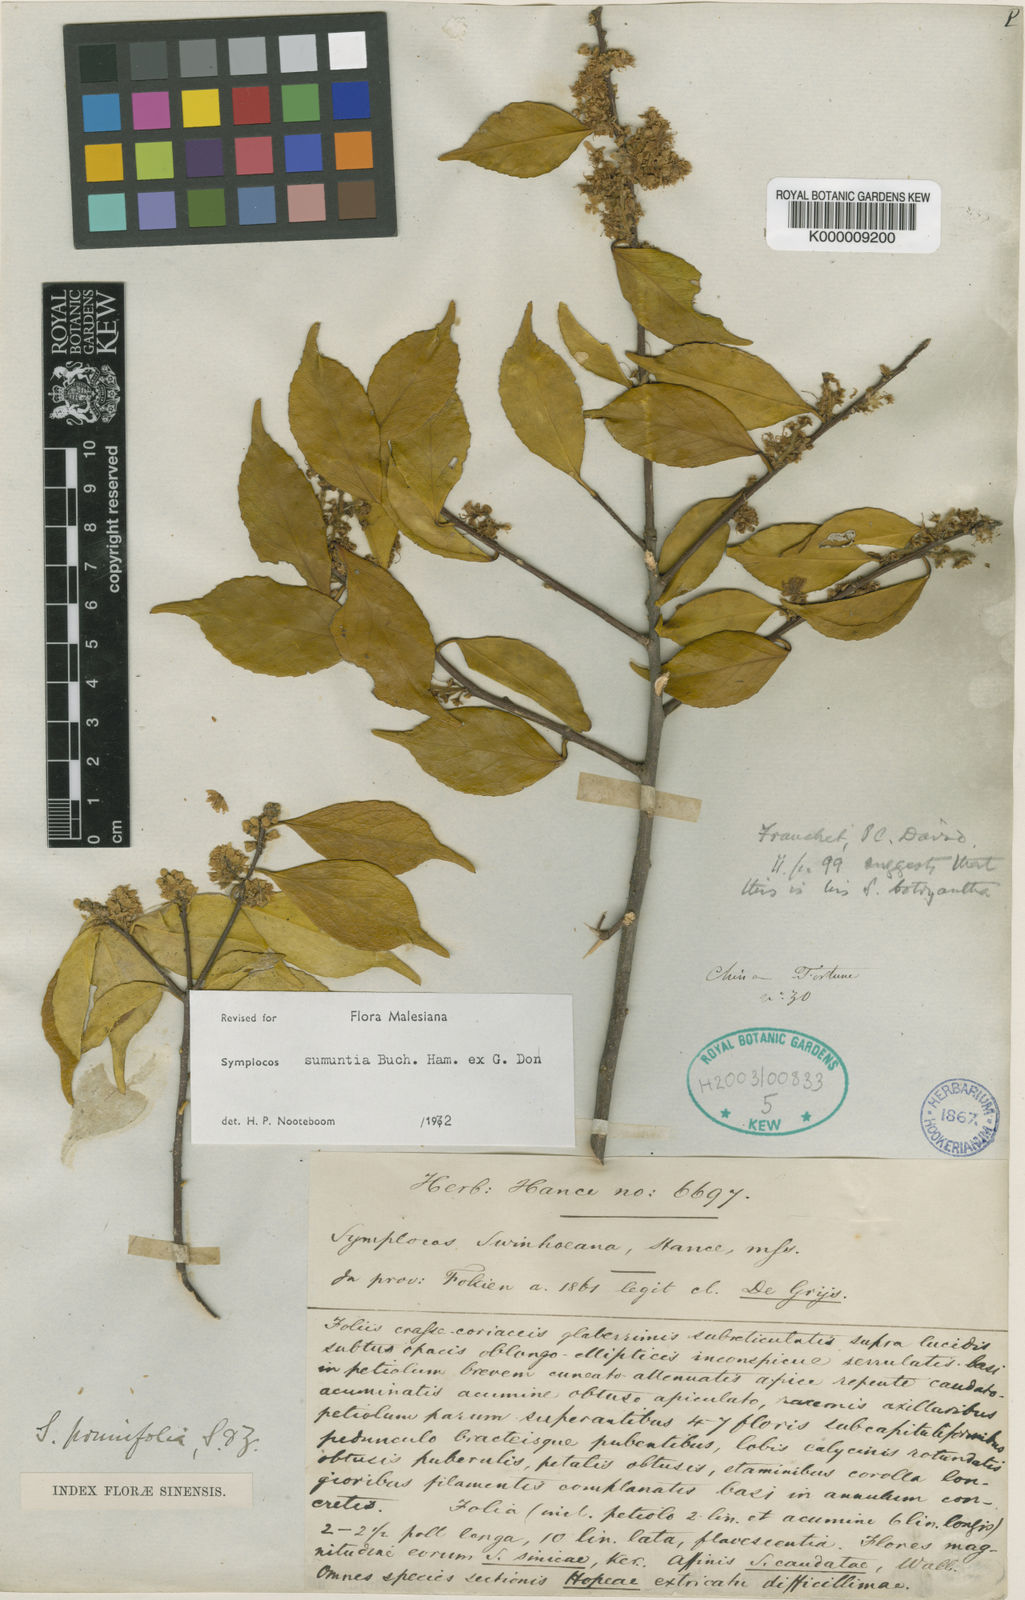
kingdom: Plantae
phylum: Tracheophyta
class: Magnoliopsida
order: Ericales
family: Symplocaceae
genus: Symplocos
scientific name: Symplocos sumuntia
